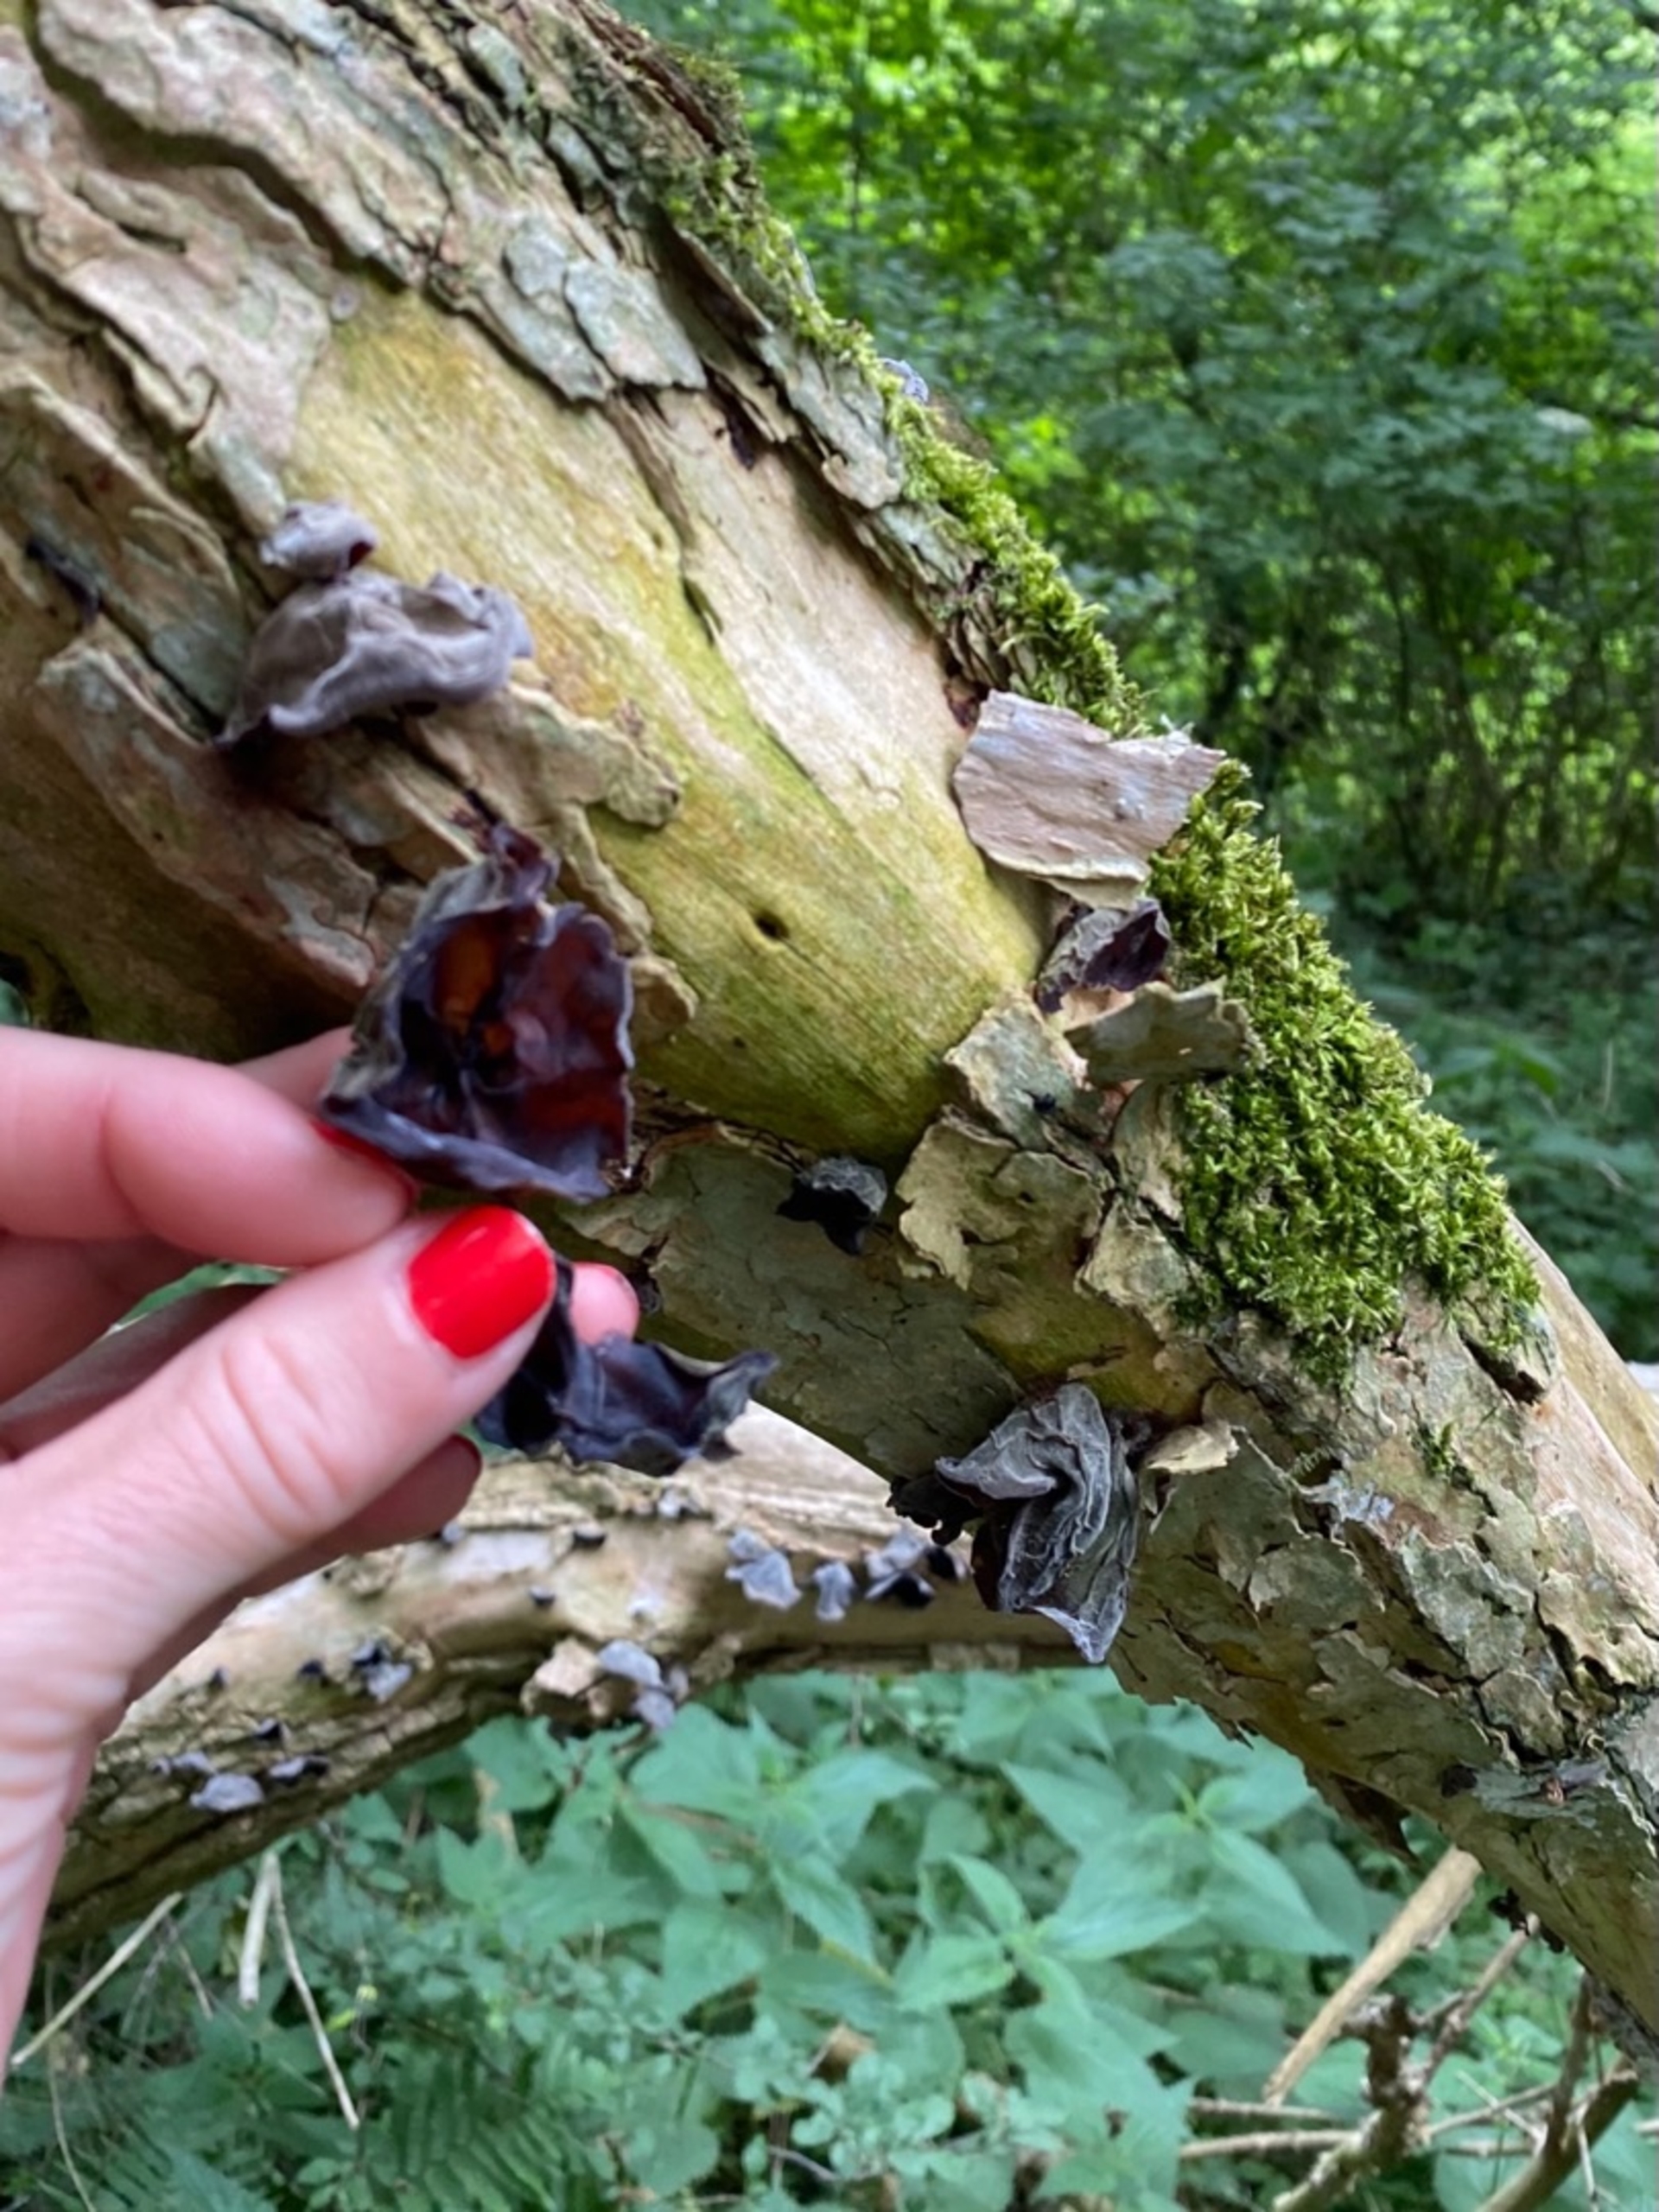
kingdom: Fungi
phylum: Basidiomycota
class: Agaricomycetes
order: Auriculariales
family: Auriculariaceae
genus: Auricularia
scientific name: Auricularia auricula-judae
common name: Almindelig judasøre
